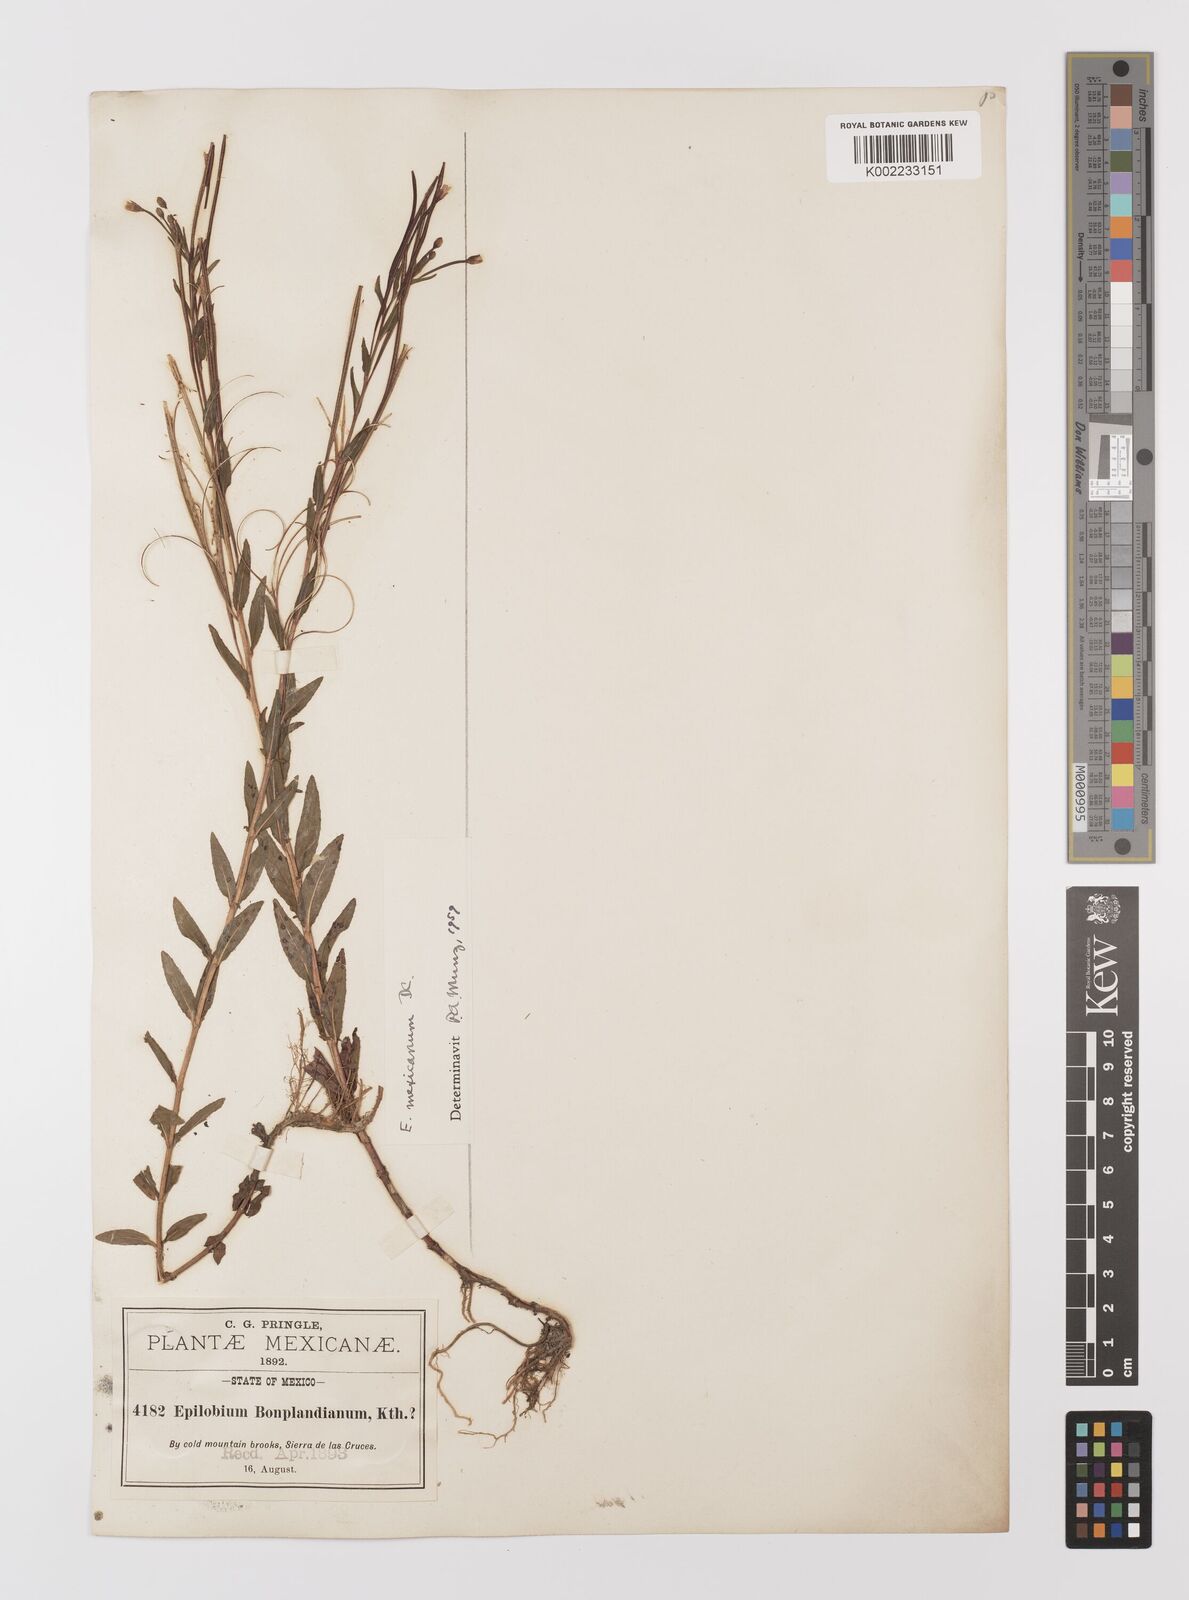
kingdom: Plantae
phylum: Tracheophyta
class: Magnoliopsida
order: Myrtales
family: Onagraceae
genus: Epilobium
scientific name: Epilobium
